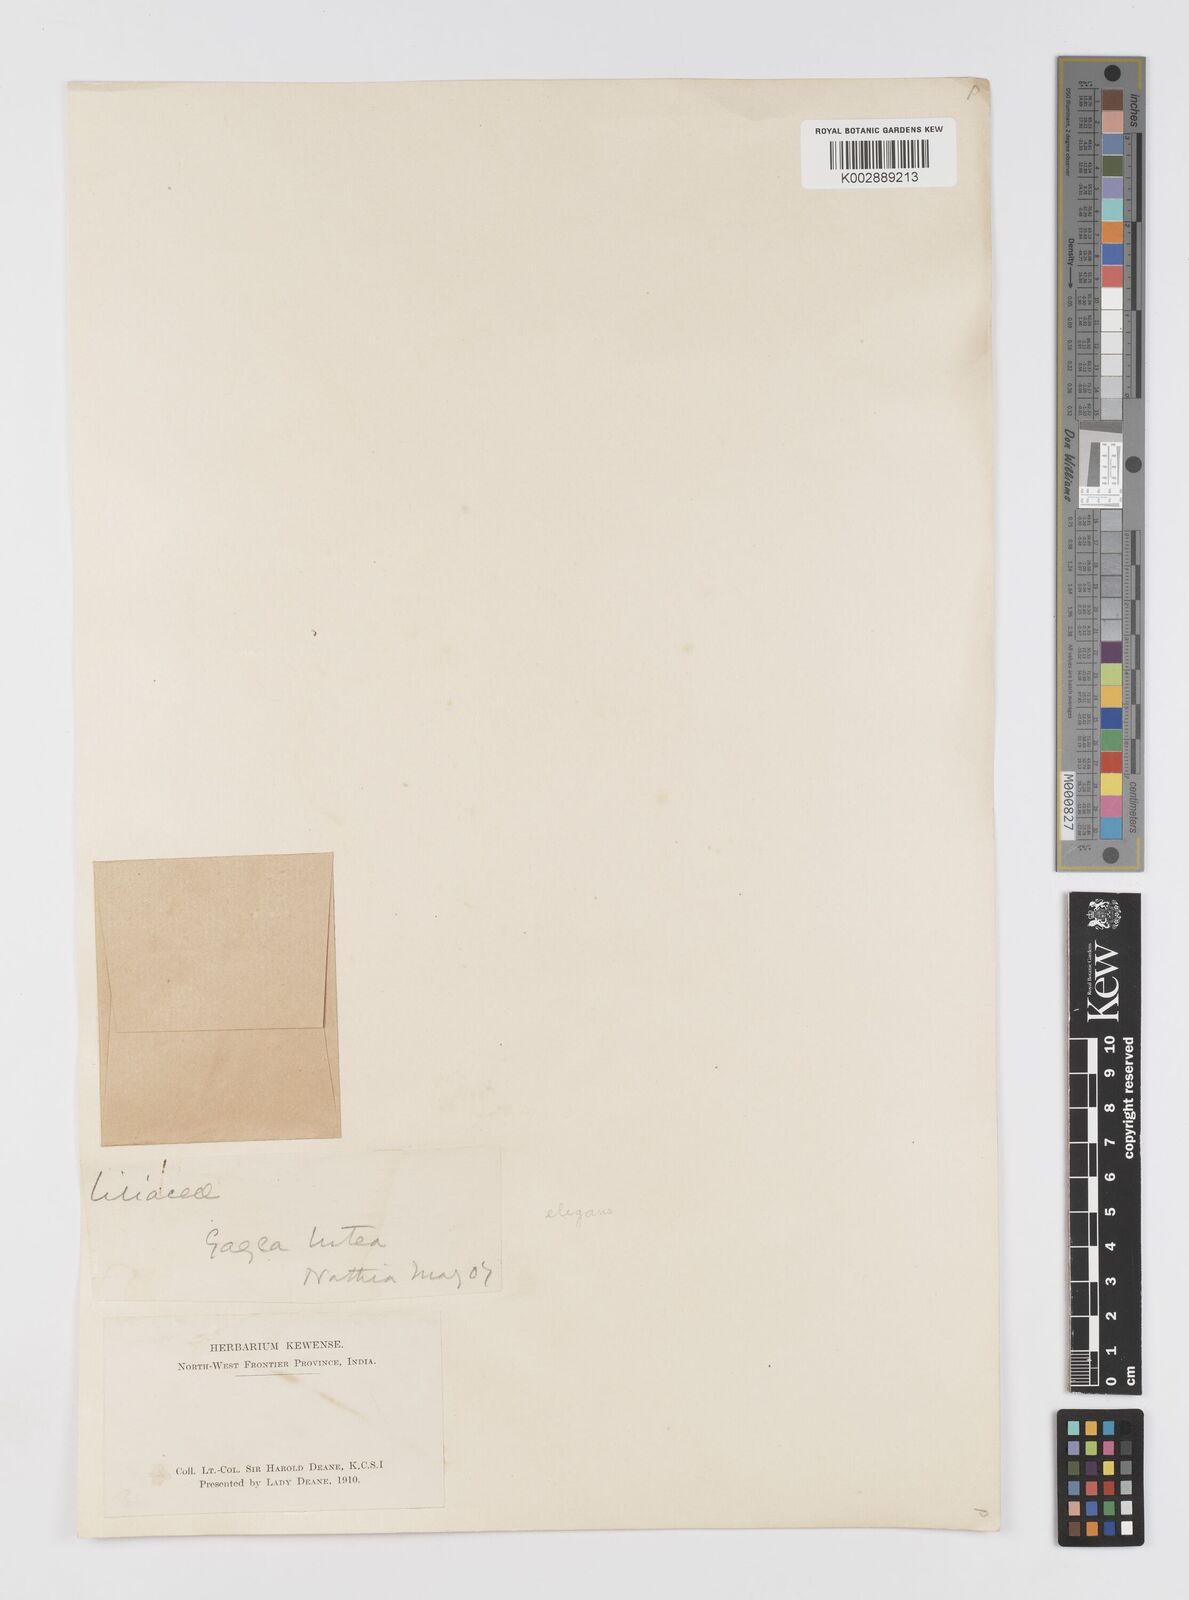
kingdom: Plantae
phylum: Tracheophyta
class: Liliopsida
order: Liliales
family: Liliaceae
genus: Gagea
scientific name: Gagea lutea
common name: Yellow star-of-bethlehem
